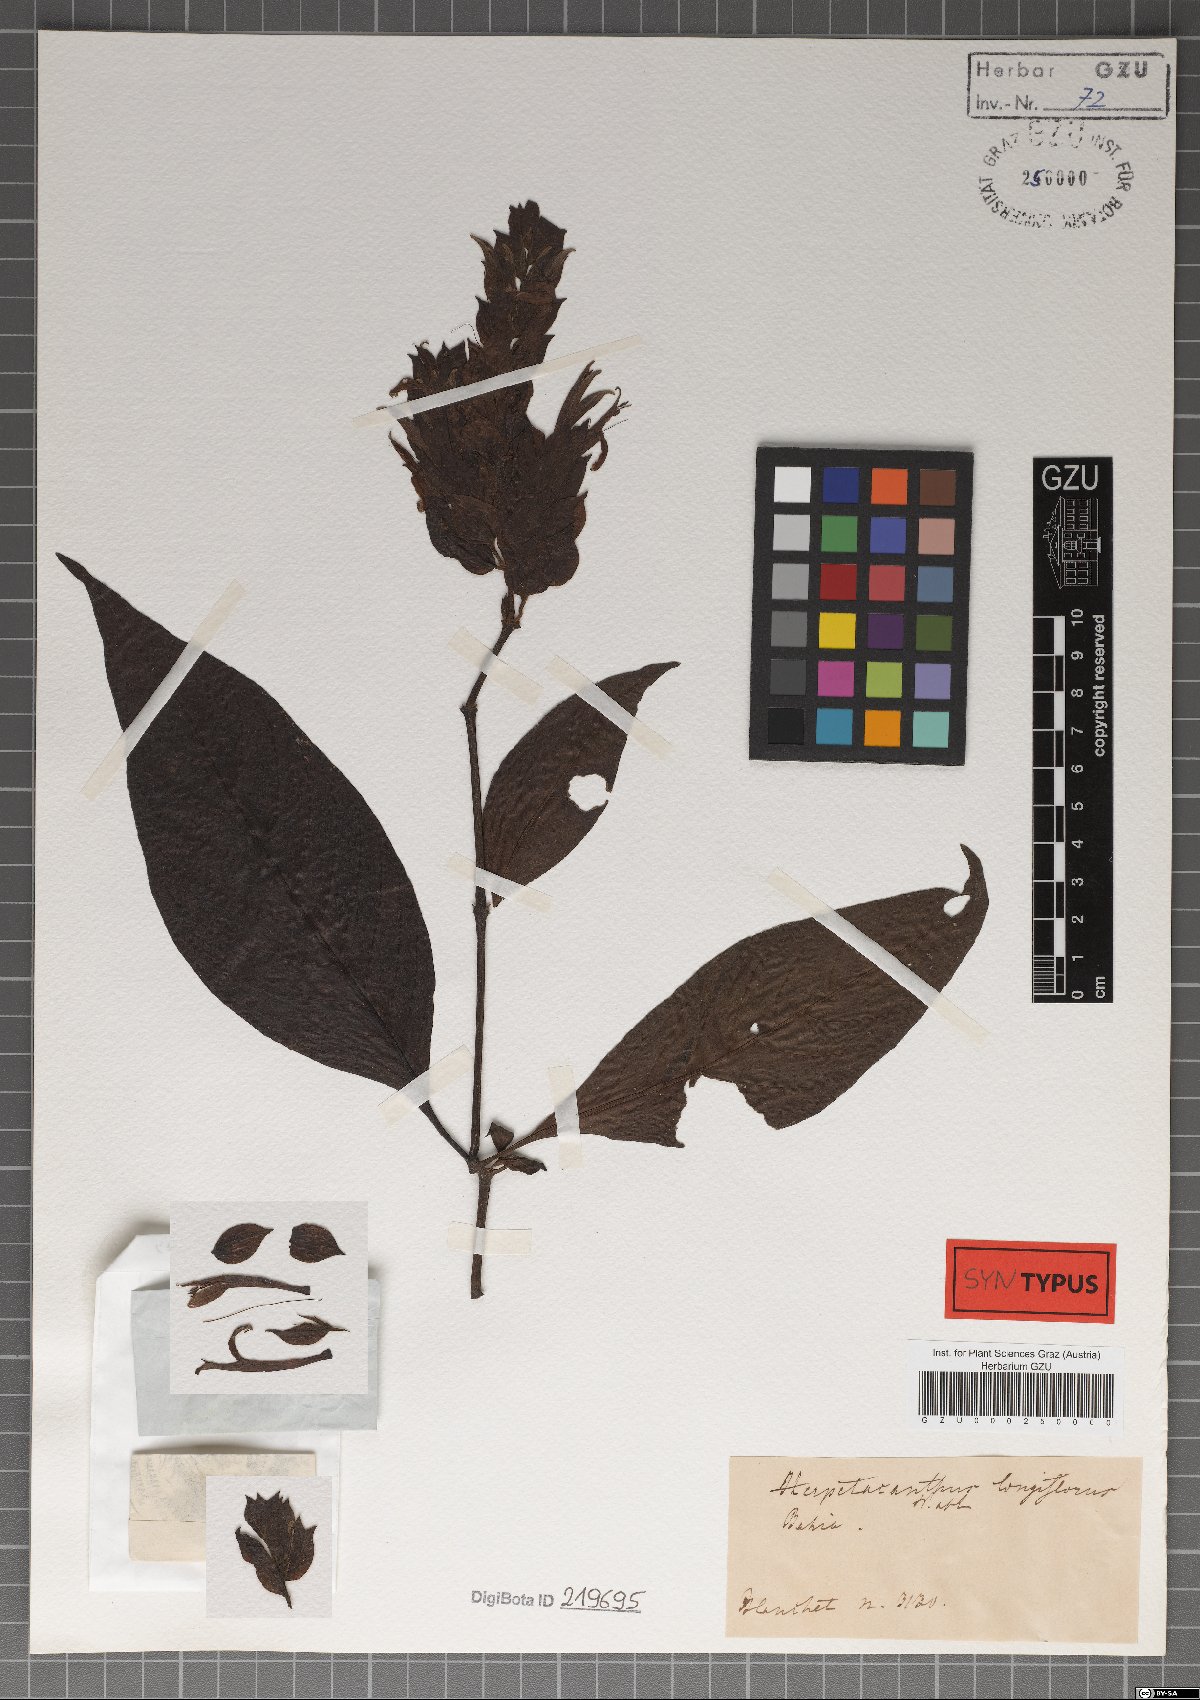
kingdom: Plantae
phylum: Tracheophyta
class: Magnoliopsida
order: Lamiales
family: Acanthaceae
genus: Herpetacanthus
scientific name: Herpetacanthus longiflorus
